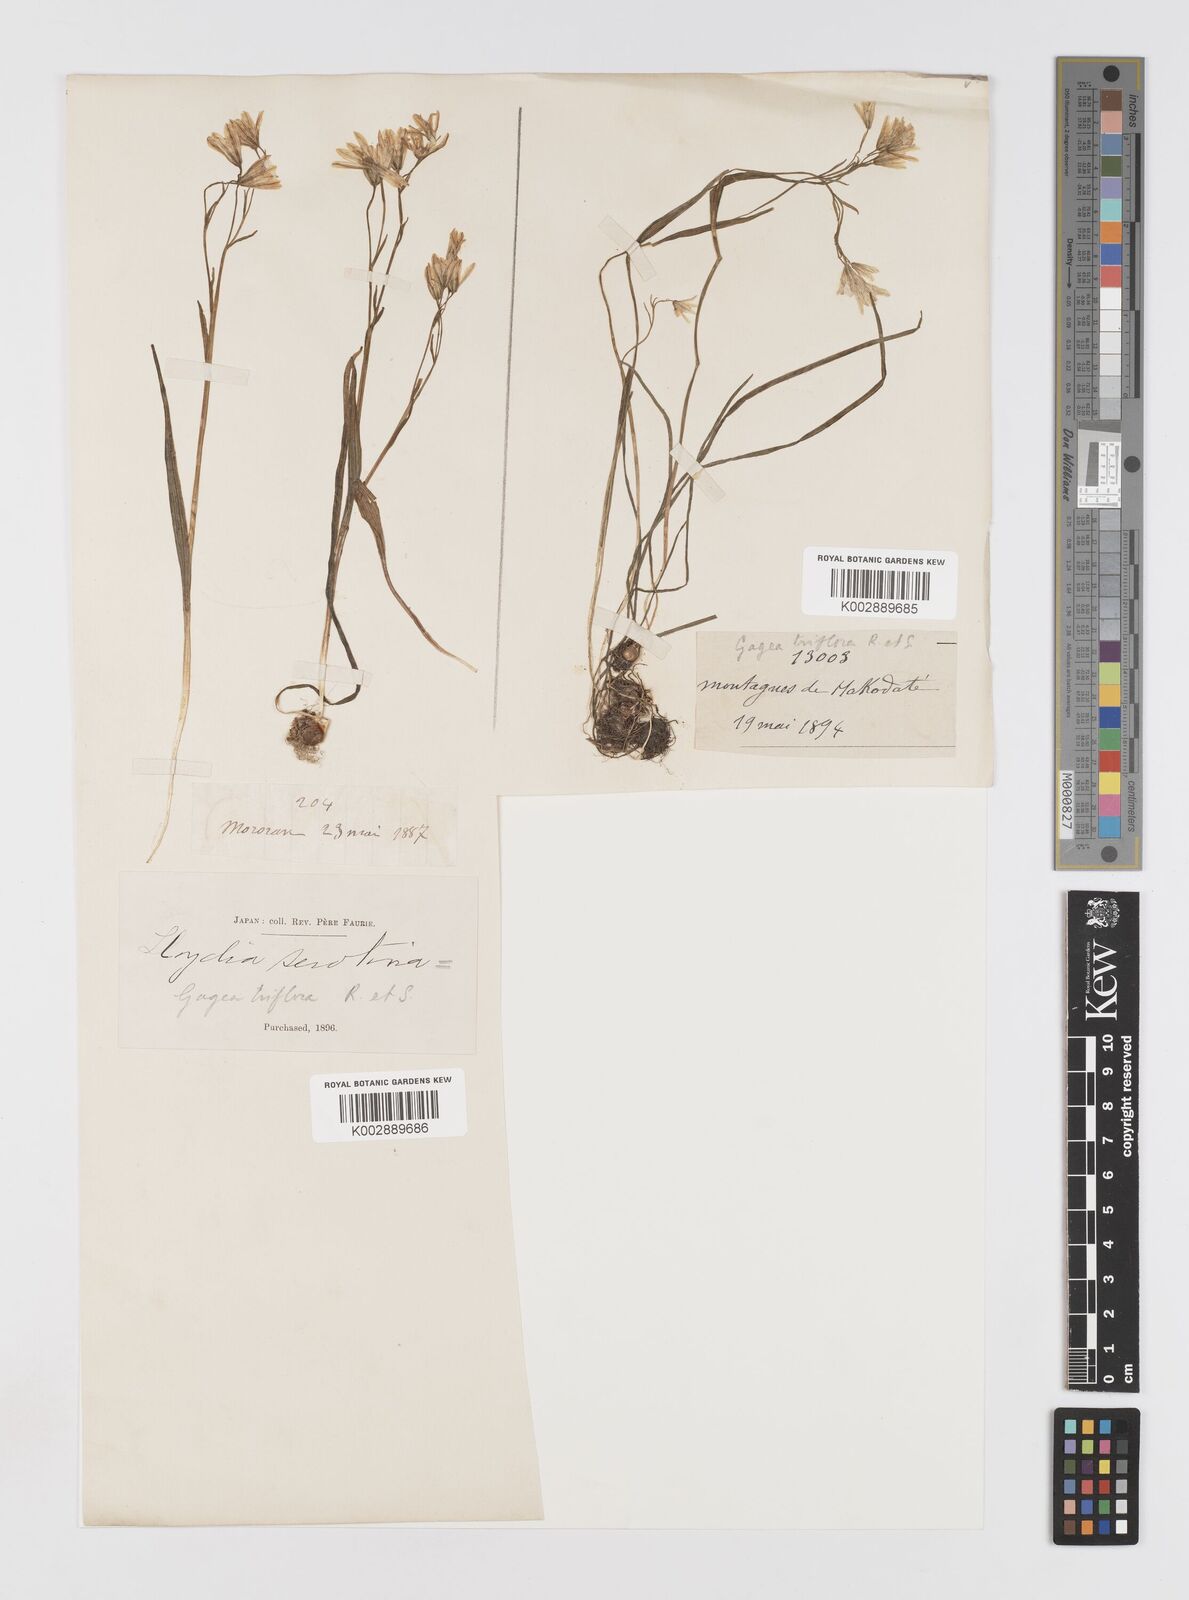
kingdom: Plantae
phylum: Tracheophyta
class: Liliopsida
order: Liliales
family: Liliaceae
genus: Gagea
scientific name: Gagea triflora
